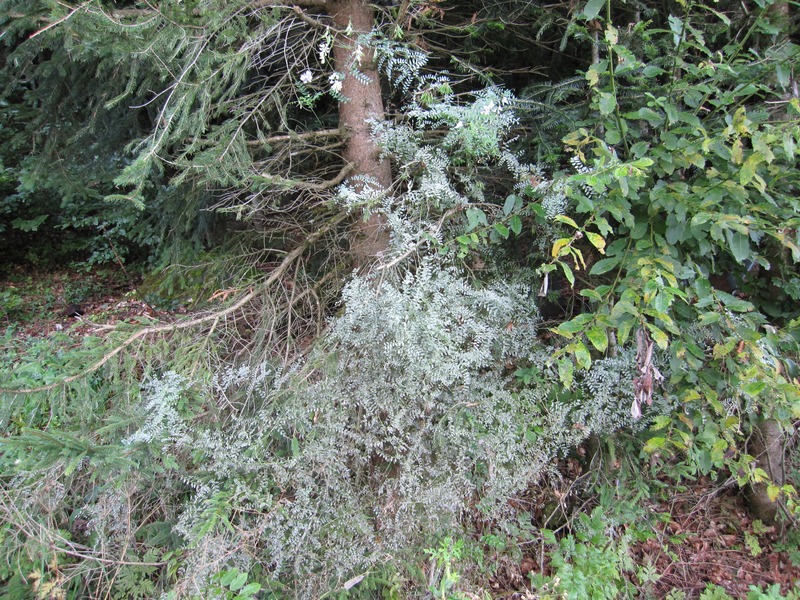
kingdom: Fungi
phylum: Ascomycota
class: Leotiomycetes
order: Helotiales
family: Erysiphaceae
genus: Erysiphe
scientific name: Erysiphe pisi
